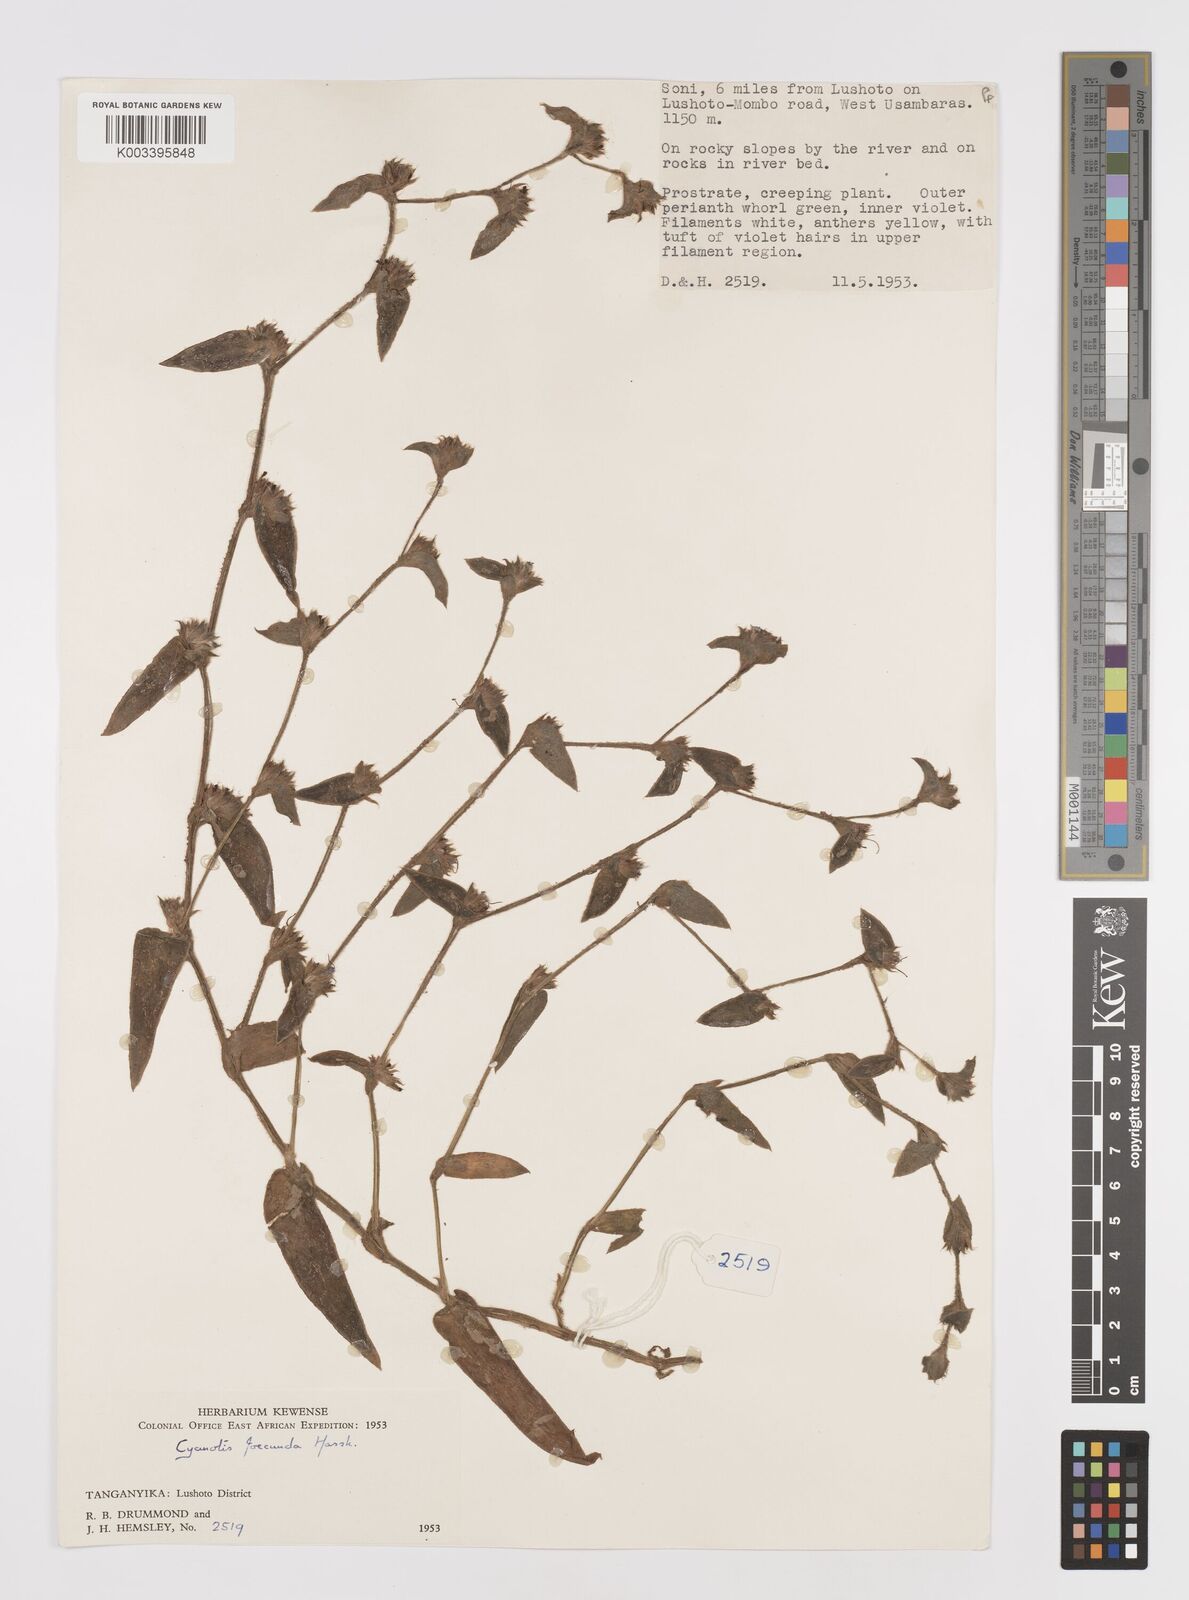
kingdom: Plantae
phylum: Tracheophyta
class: Liliopsida
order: Commelinales
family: Commelinaceae
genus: Cyanotis
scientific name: Cyanotis foecunda
